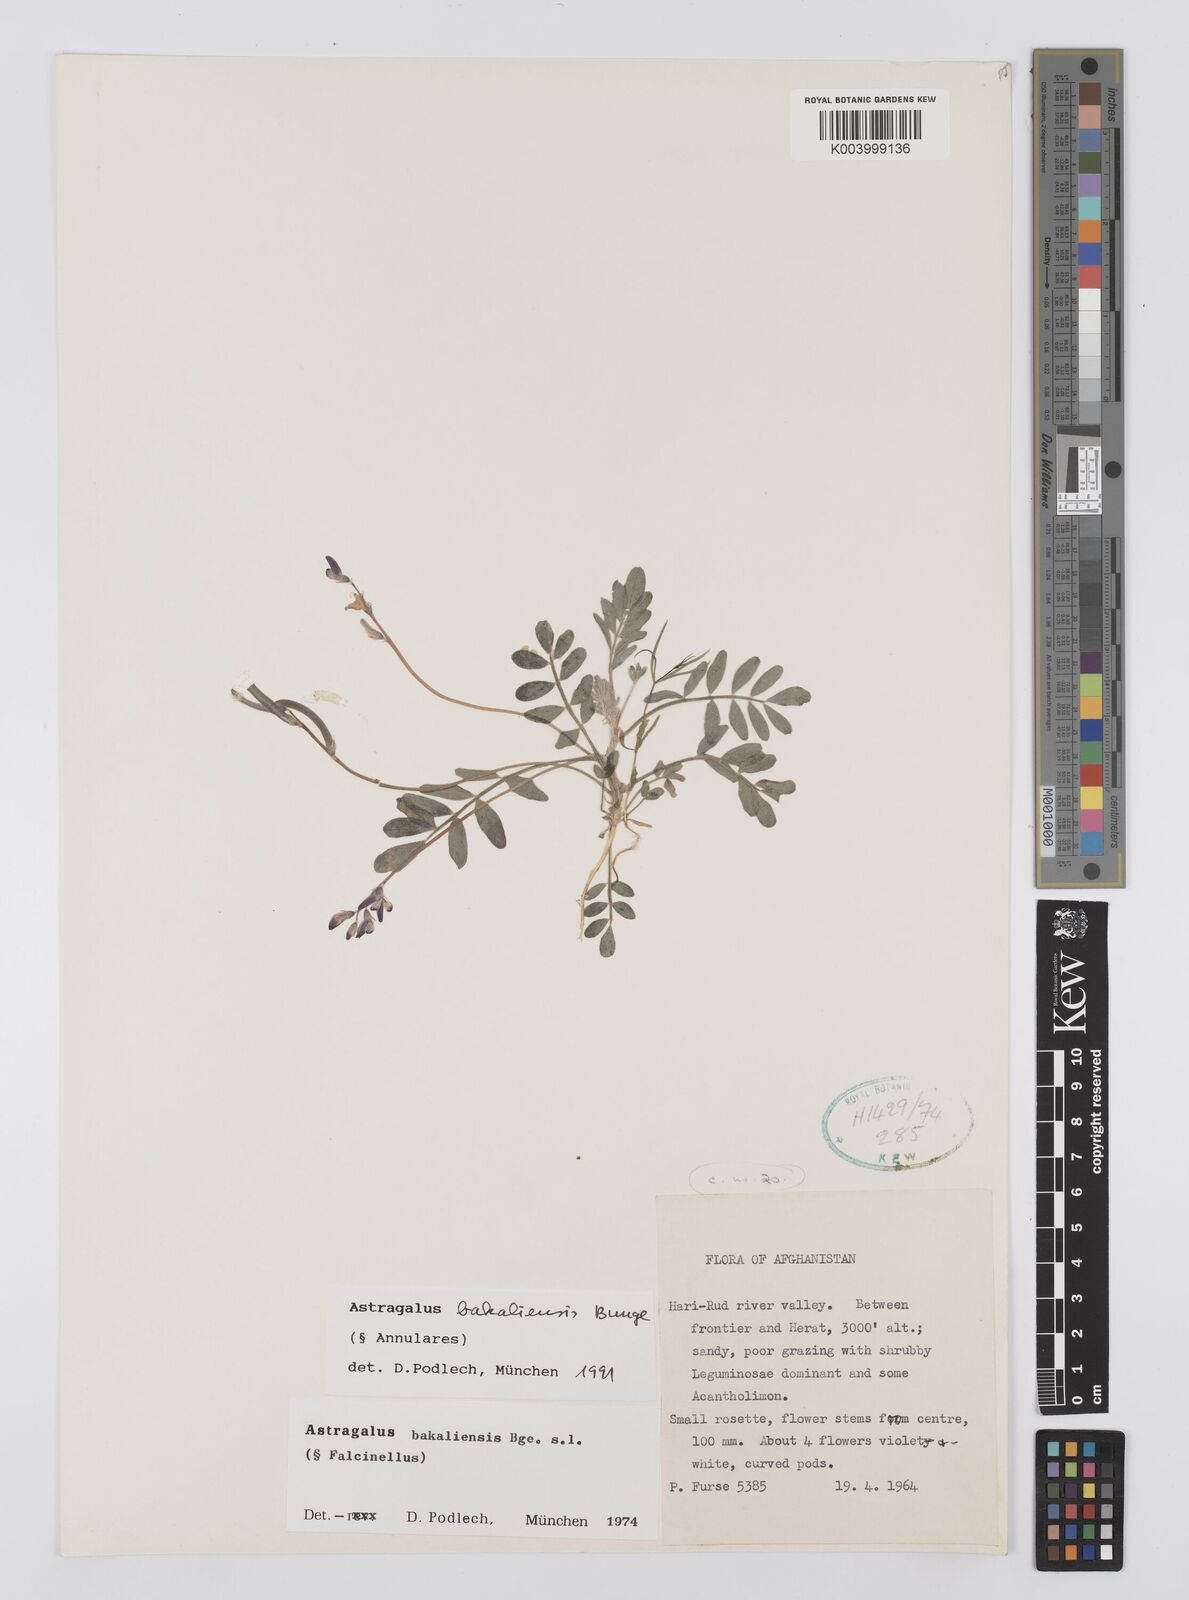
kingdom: Plantae
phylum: Tracheophyta
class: Magnoliopsida
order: Fabales
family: Fabaceae
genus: Astragalus
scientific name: Astragalus bakaliensis
